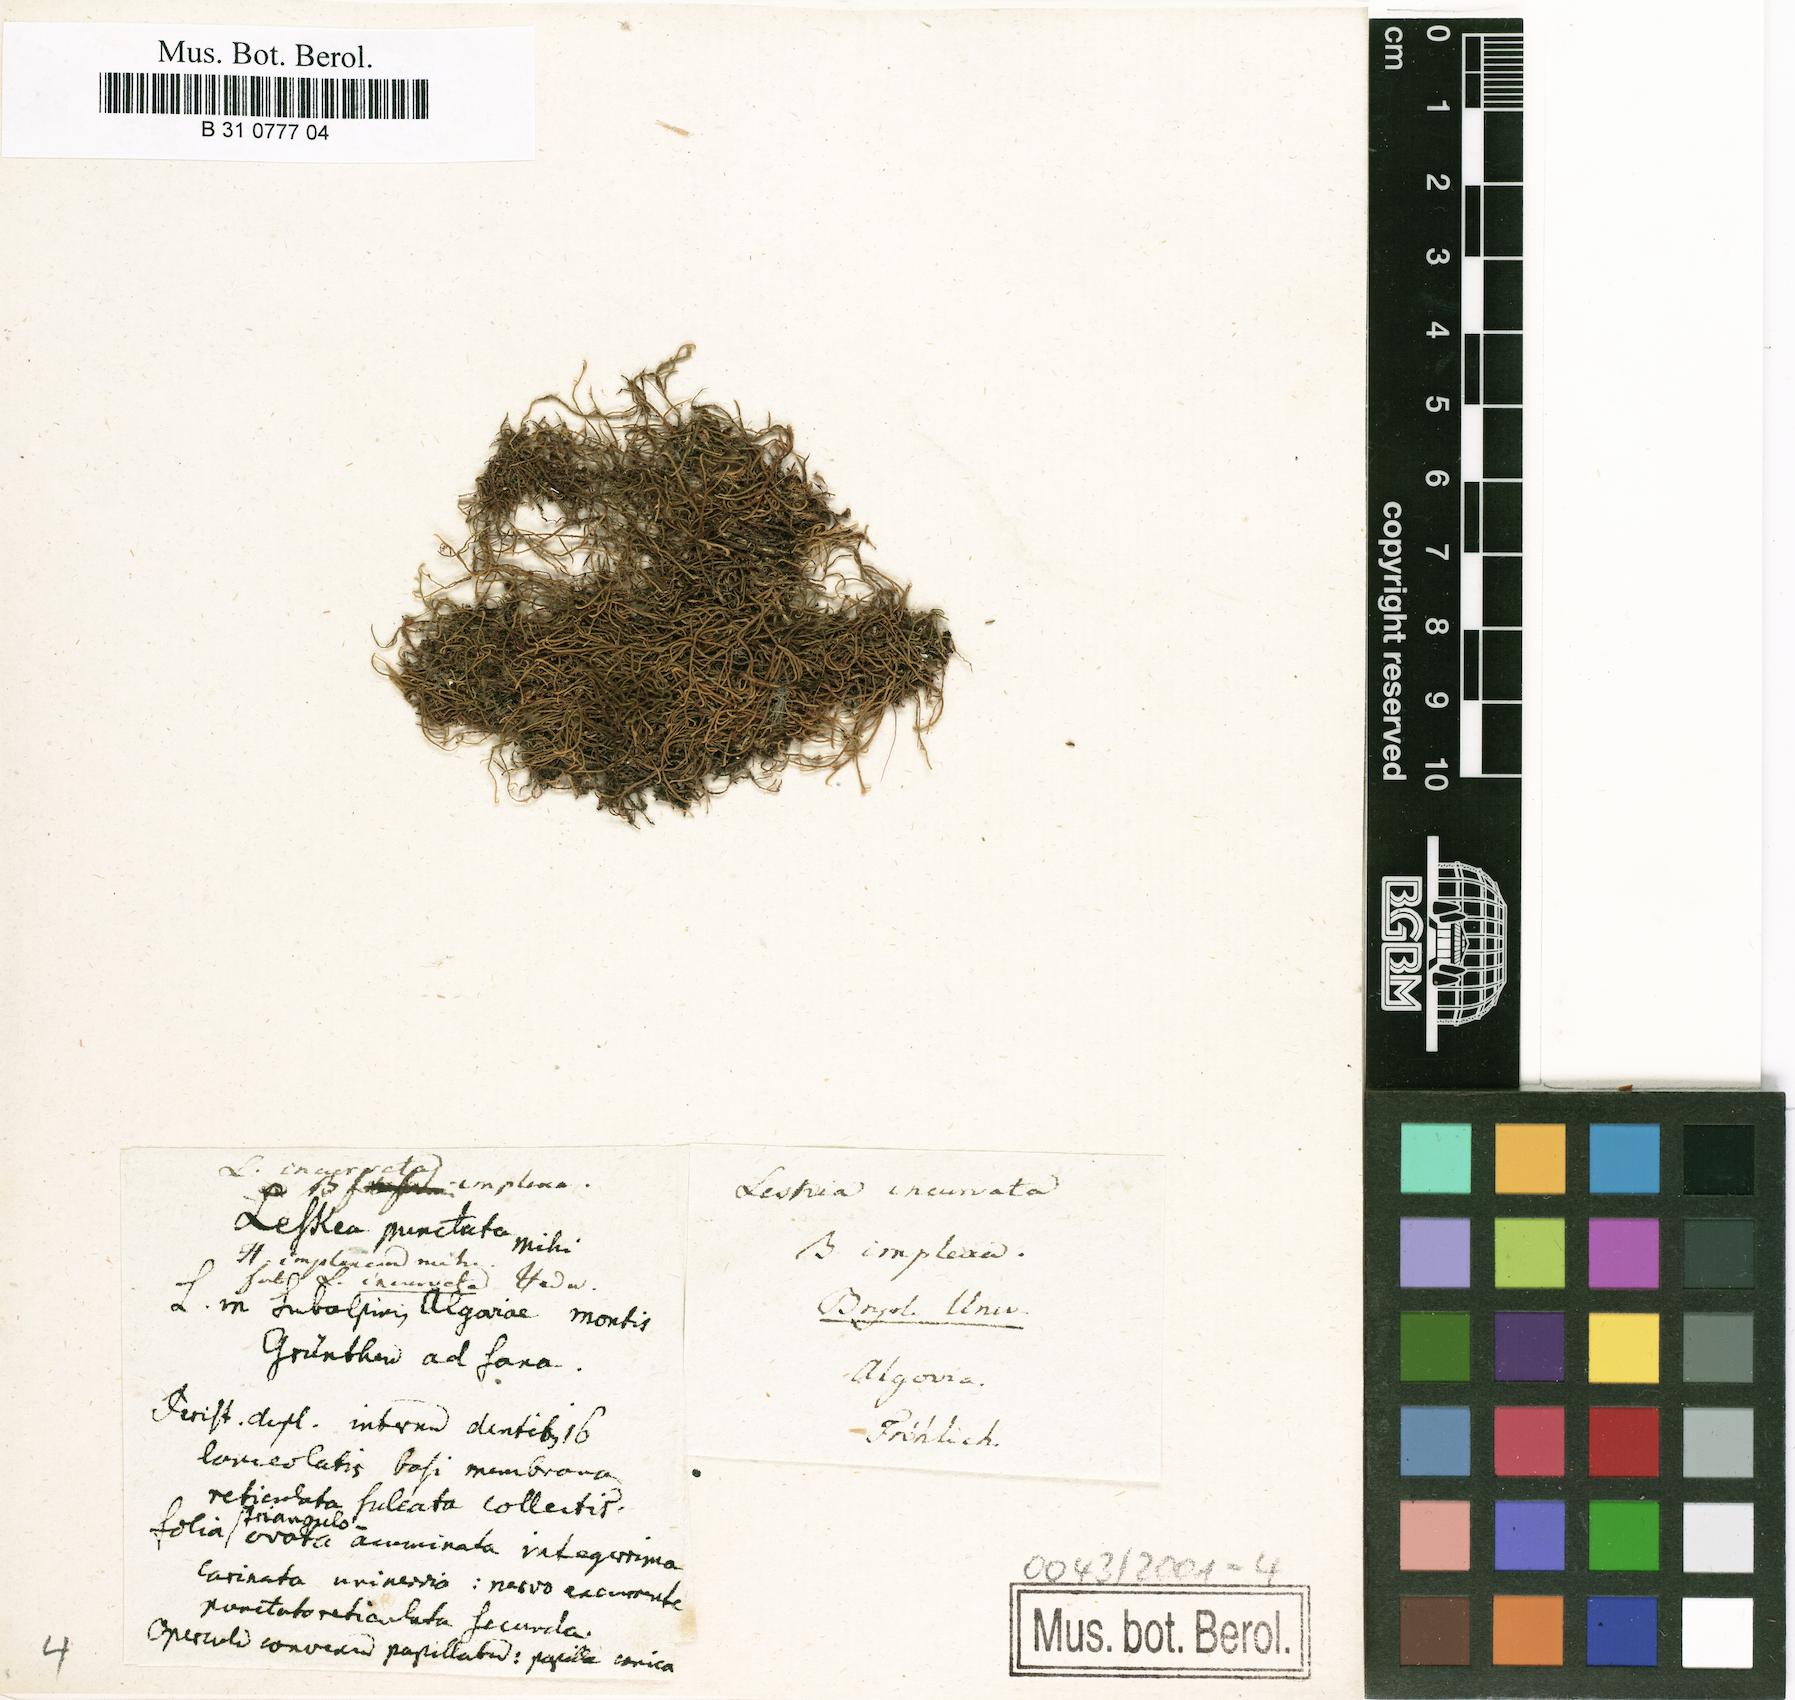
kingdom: Plantae
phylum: Bryophyta
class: Bryopsida
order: Hypnales
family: Pseudoleskeaceae
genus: Lescuraea
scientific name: Lescuraea incurvata
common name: Brown mountain leskea
